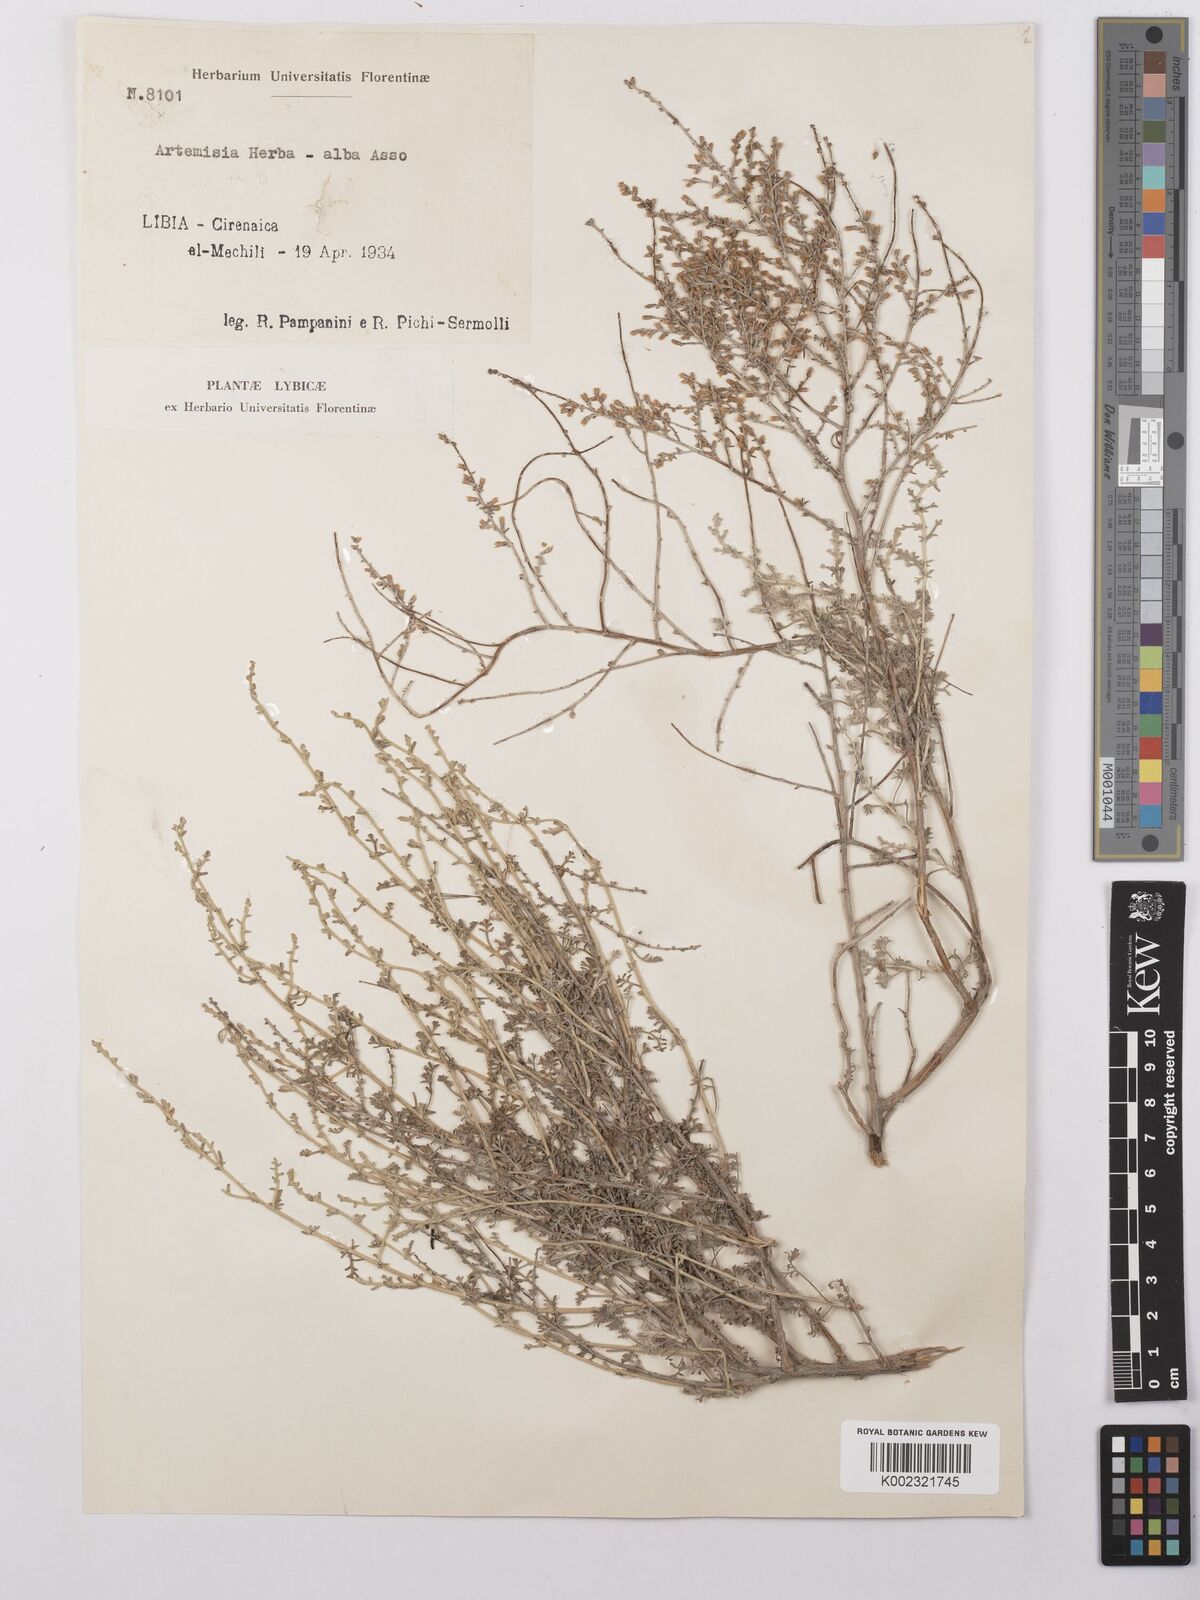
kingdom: Plantae
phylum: Tracheophyta
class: Magnoliopsida
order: Asterales
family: Asteraceae
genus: Artemisia
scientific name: Artemisia herba-alba
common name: White wormwood
